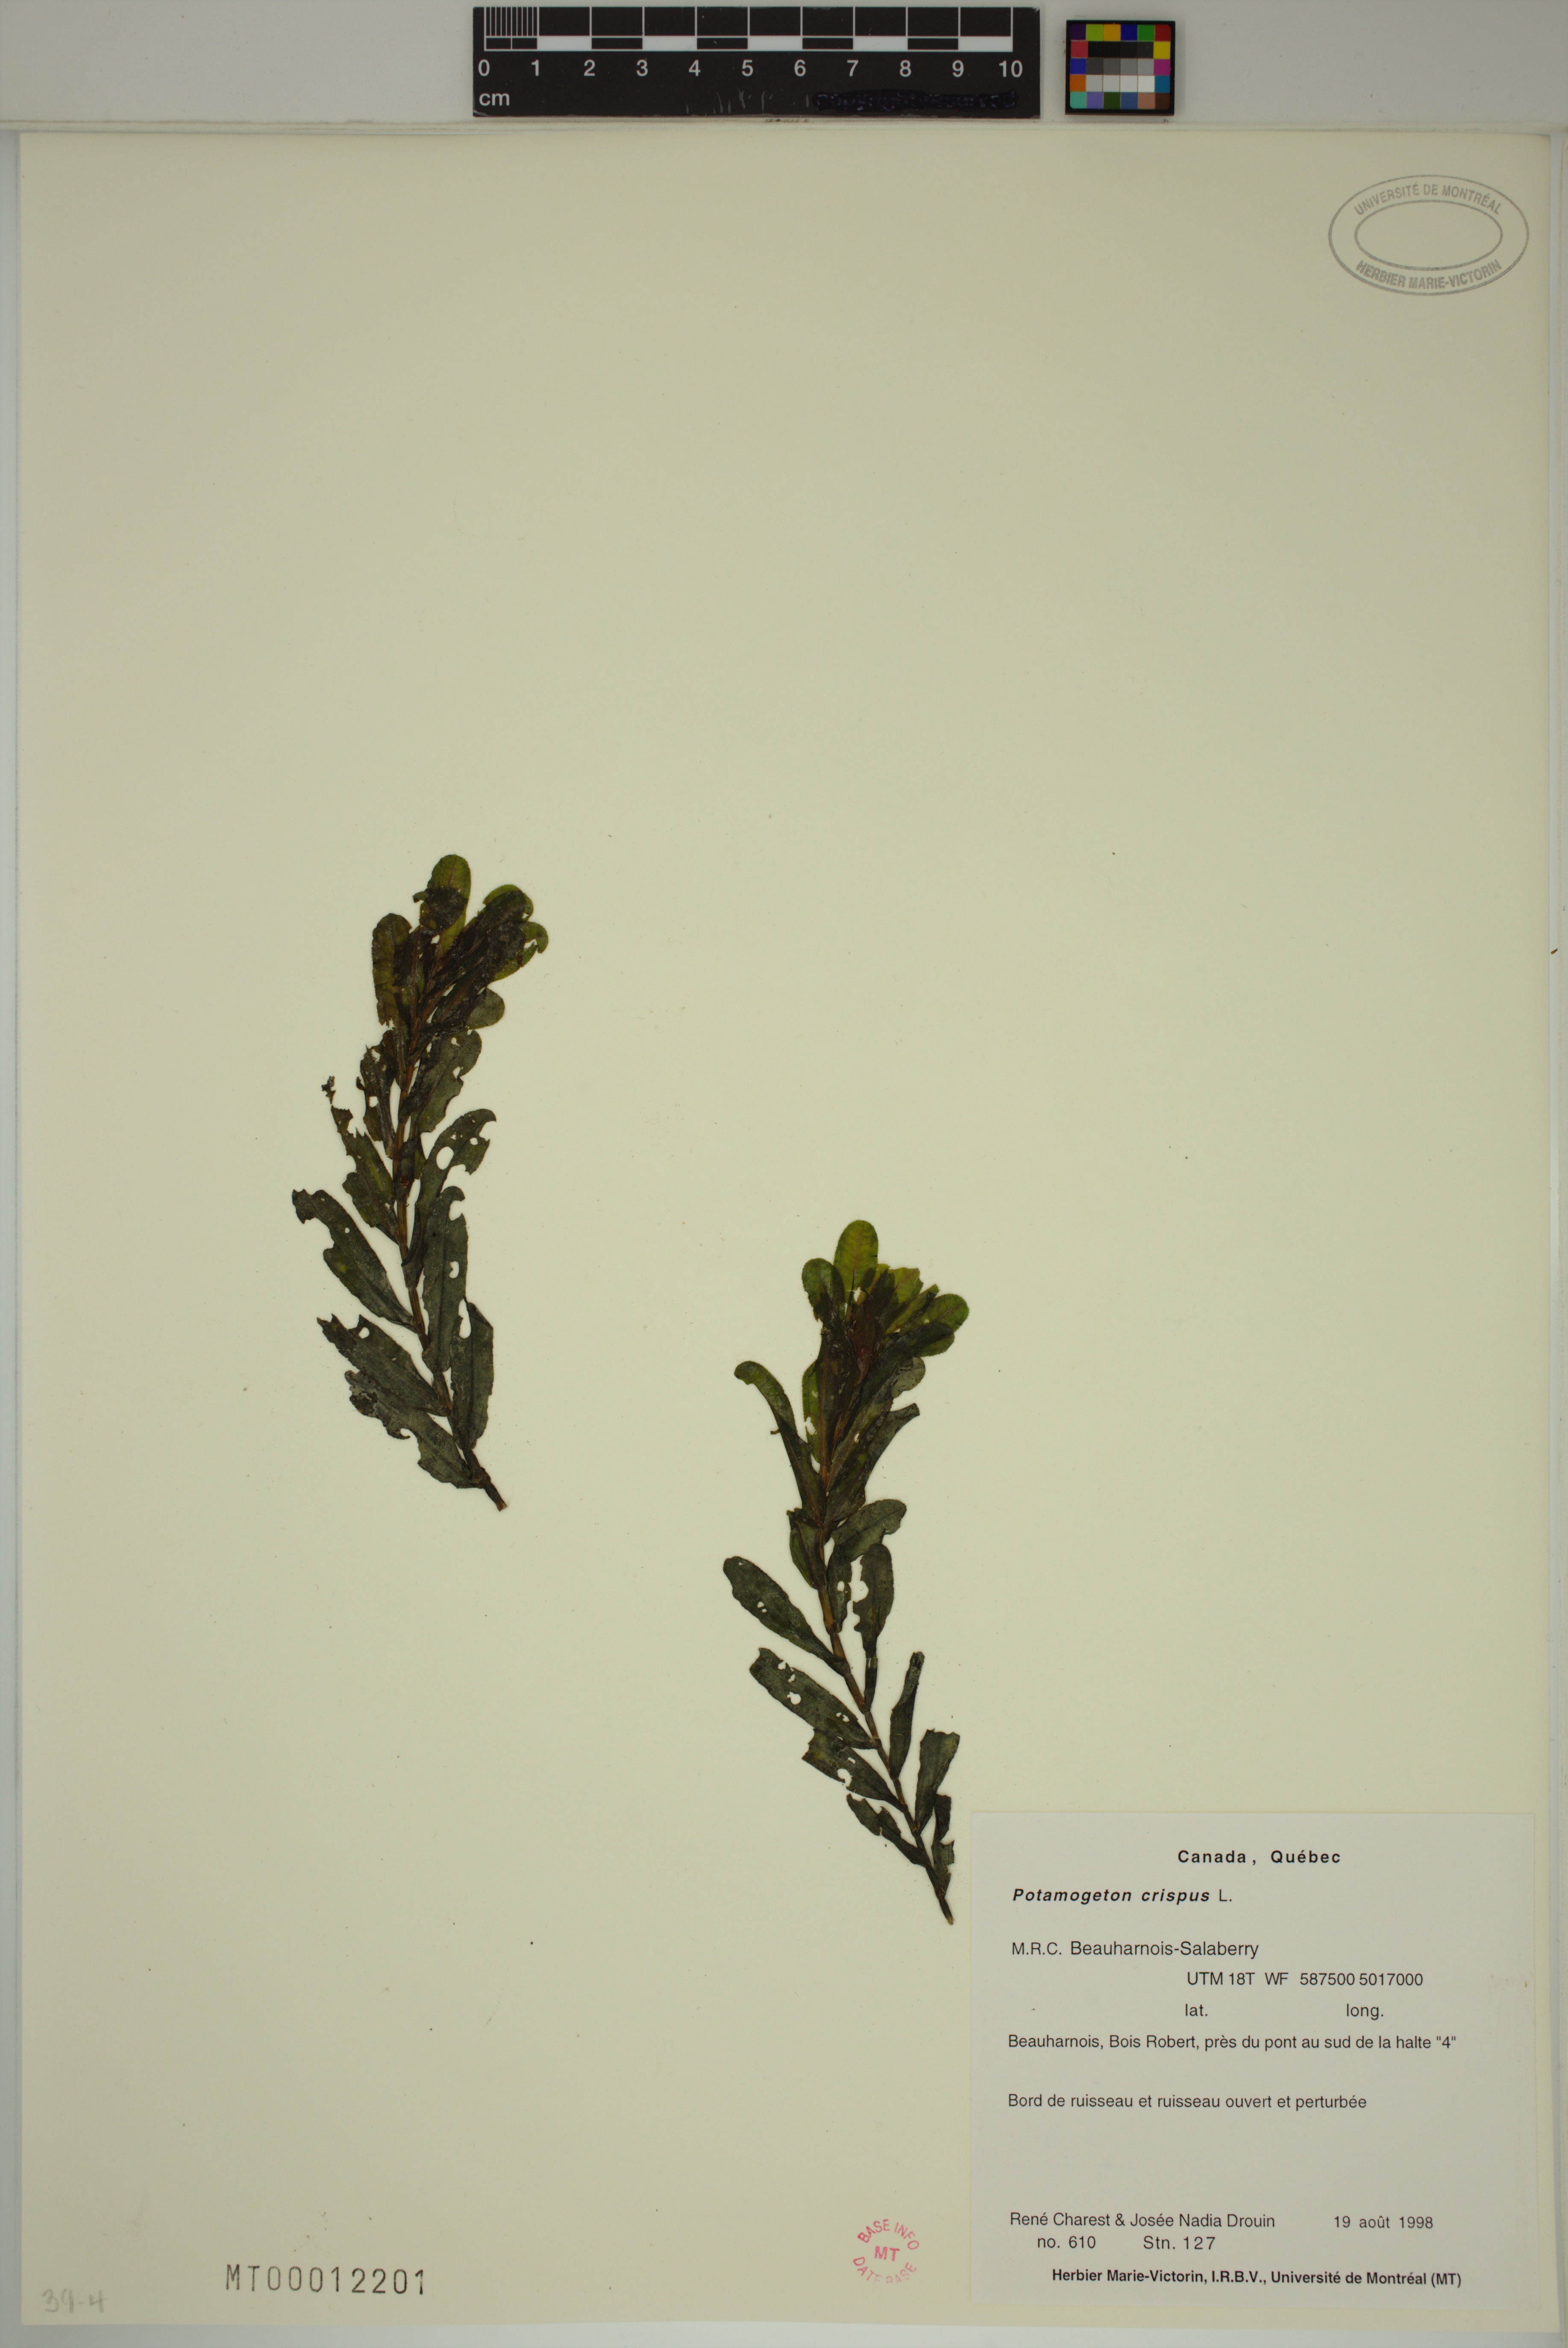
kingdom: Plantae
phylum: Tracheophyta
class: Liliopsida
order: Alismatales
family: Potamogetonaceae
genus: Potamogeton
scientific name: Potamogeton crispus
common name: Curled pondweed
